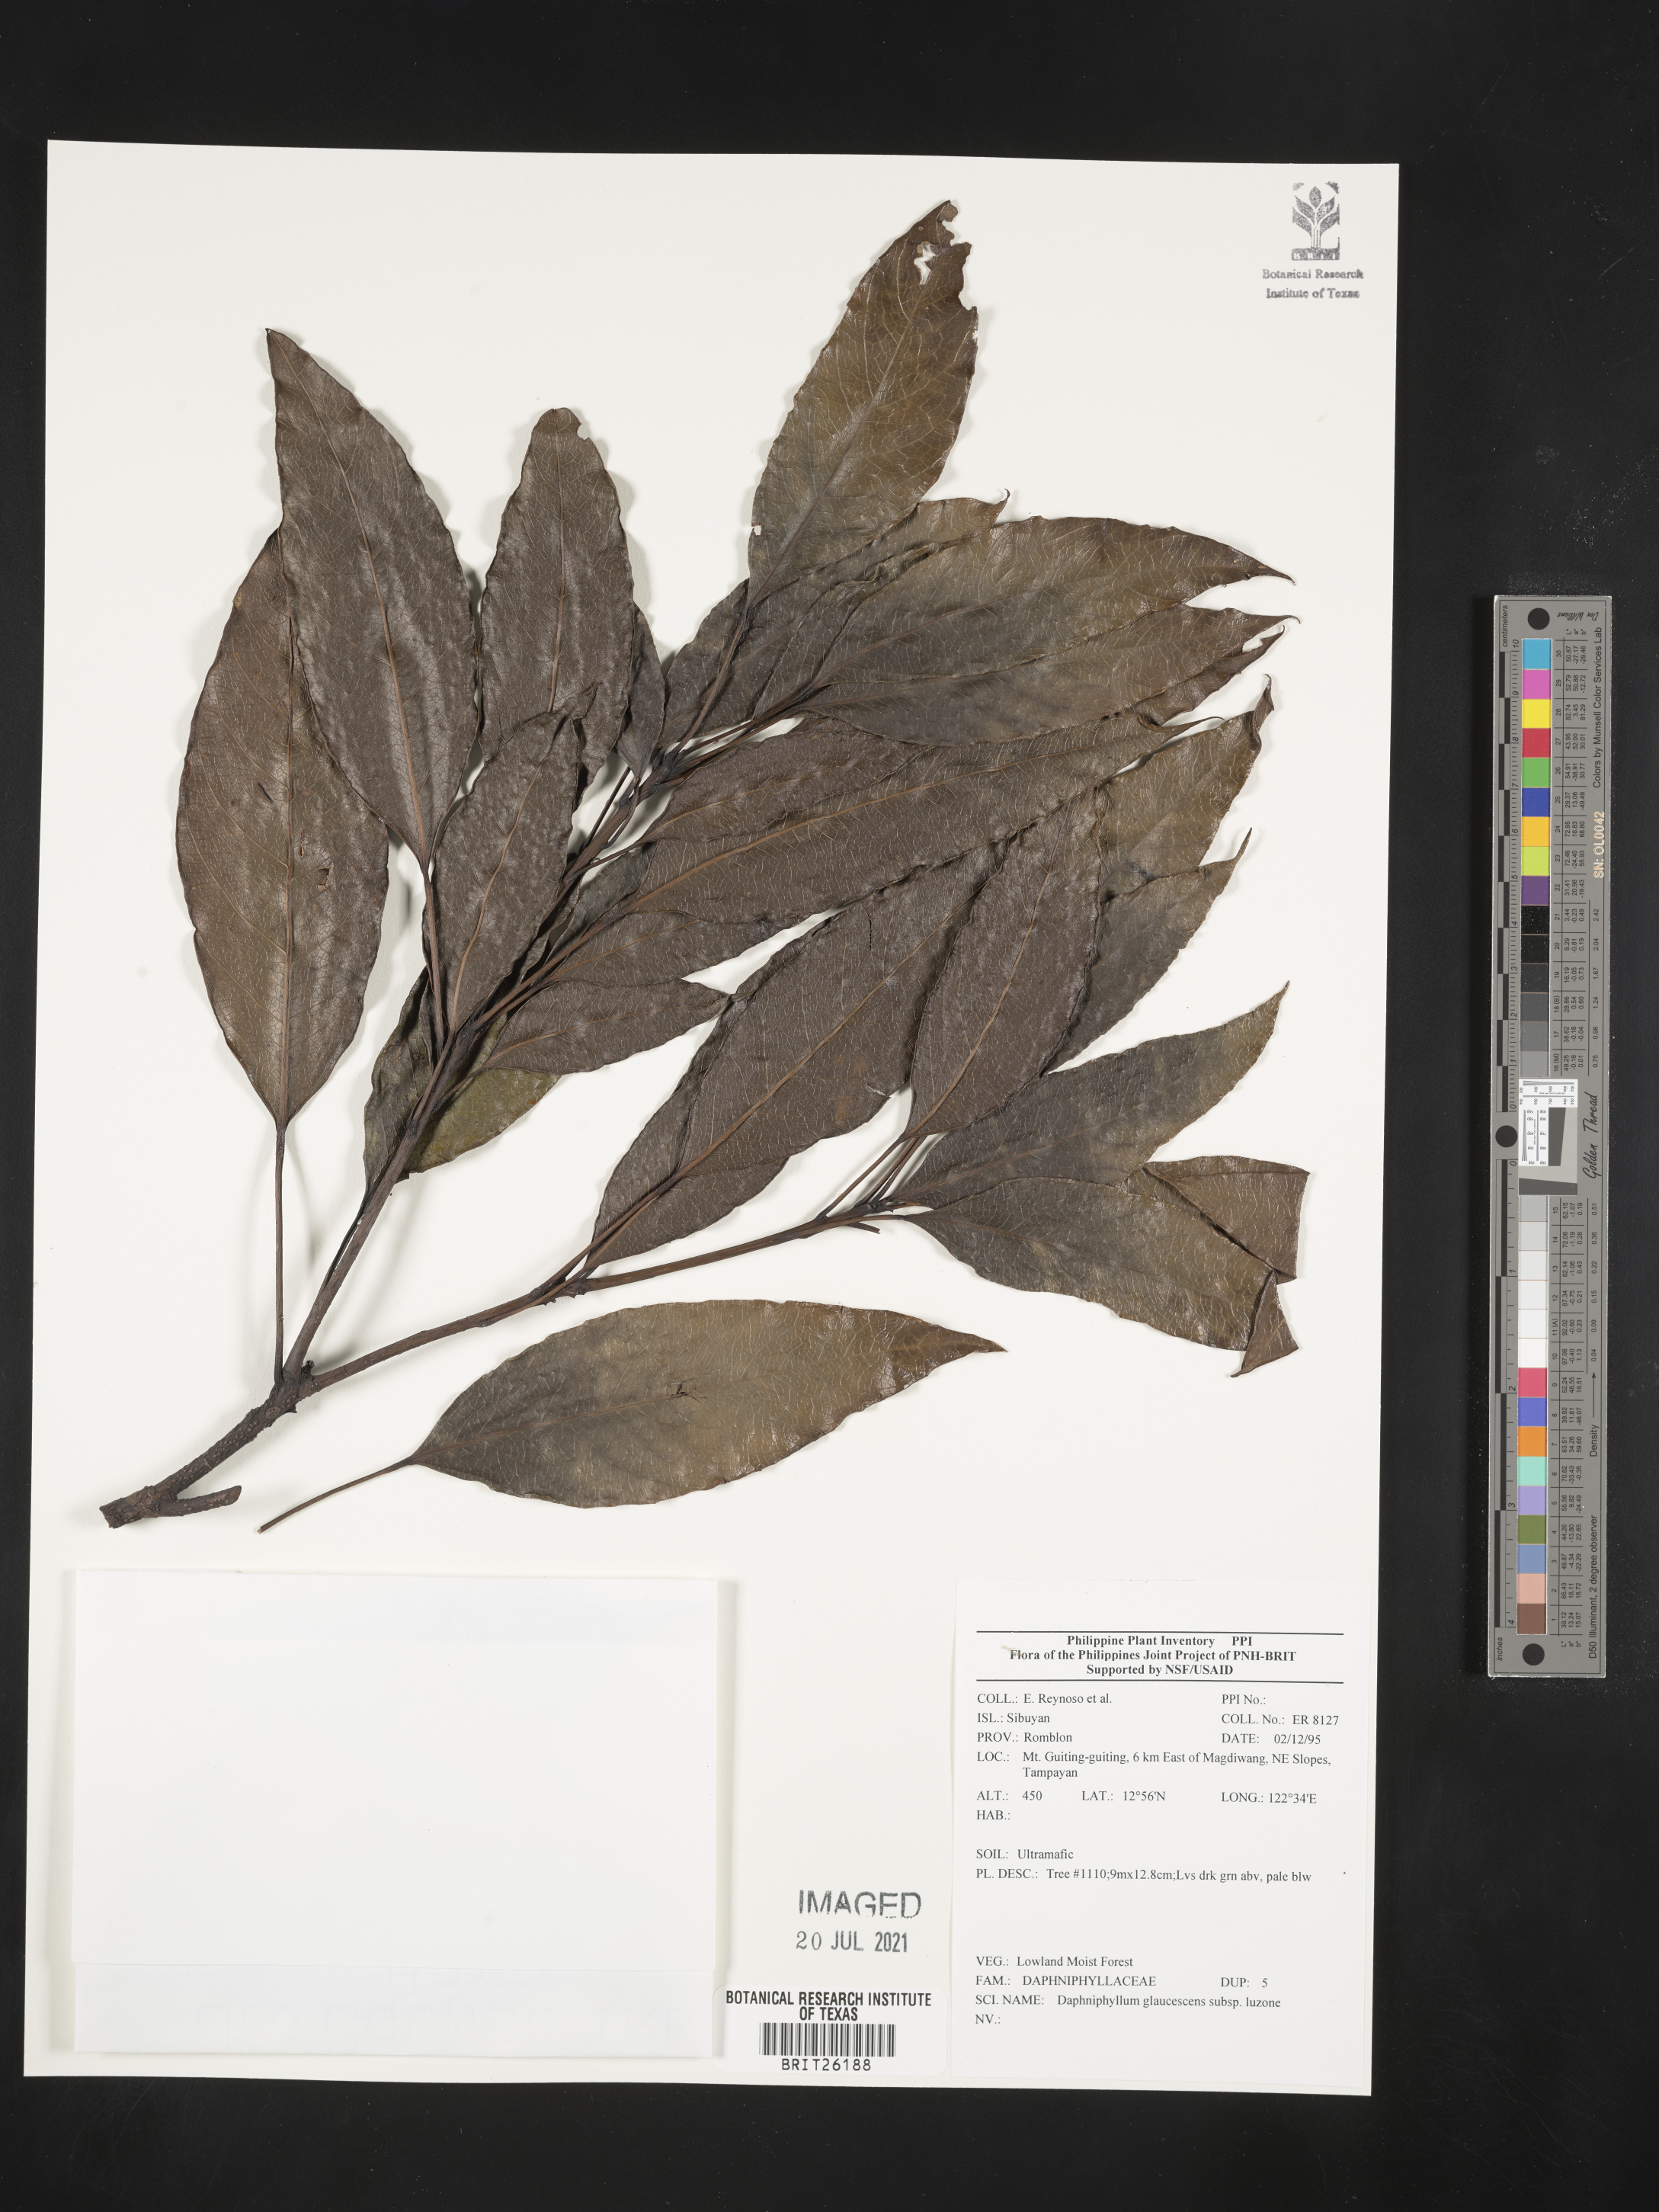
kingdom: Plantae
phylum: Tracheophyta
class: Magnoliopsida
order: Saxifragales
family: Daphniphyllaceae
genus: Daphniphyllum
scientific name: Daphniphyllum glaucescens
